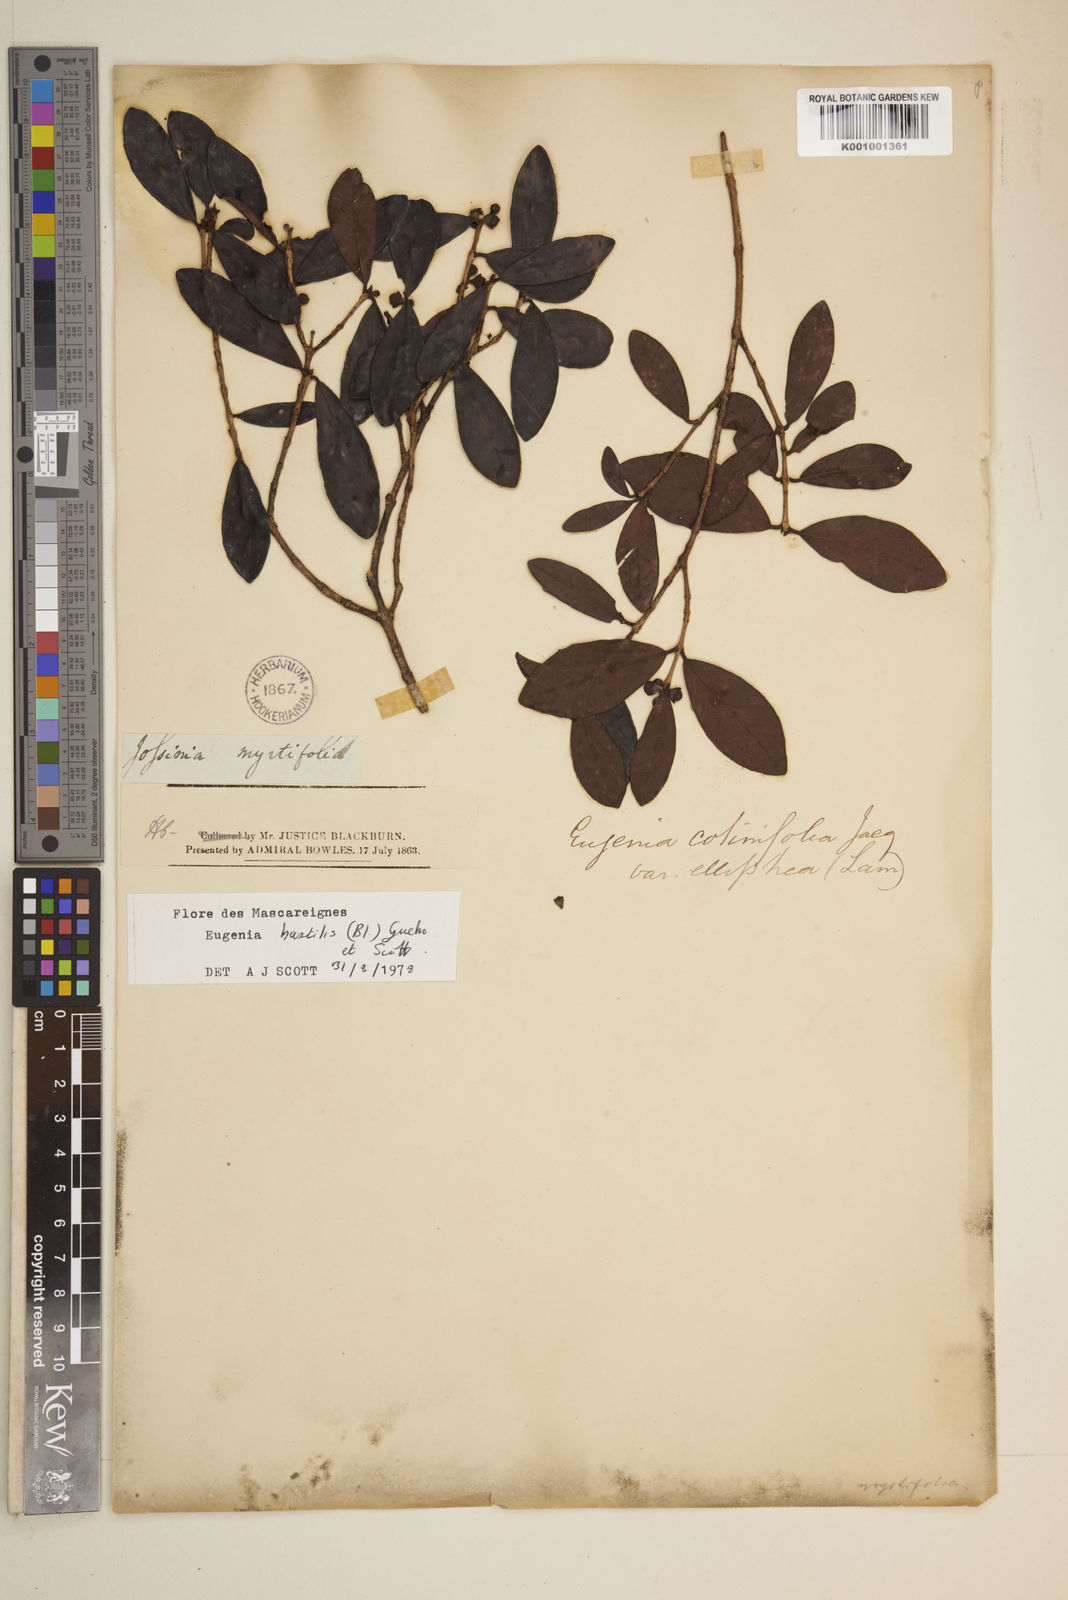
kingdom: Plantae
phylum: Tracheophyta
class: Magnoliopsida
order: Myrtales
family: Myrtaceae
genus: Eugenia
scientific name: Eugenia
